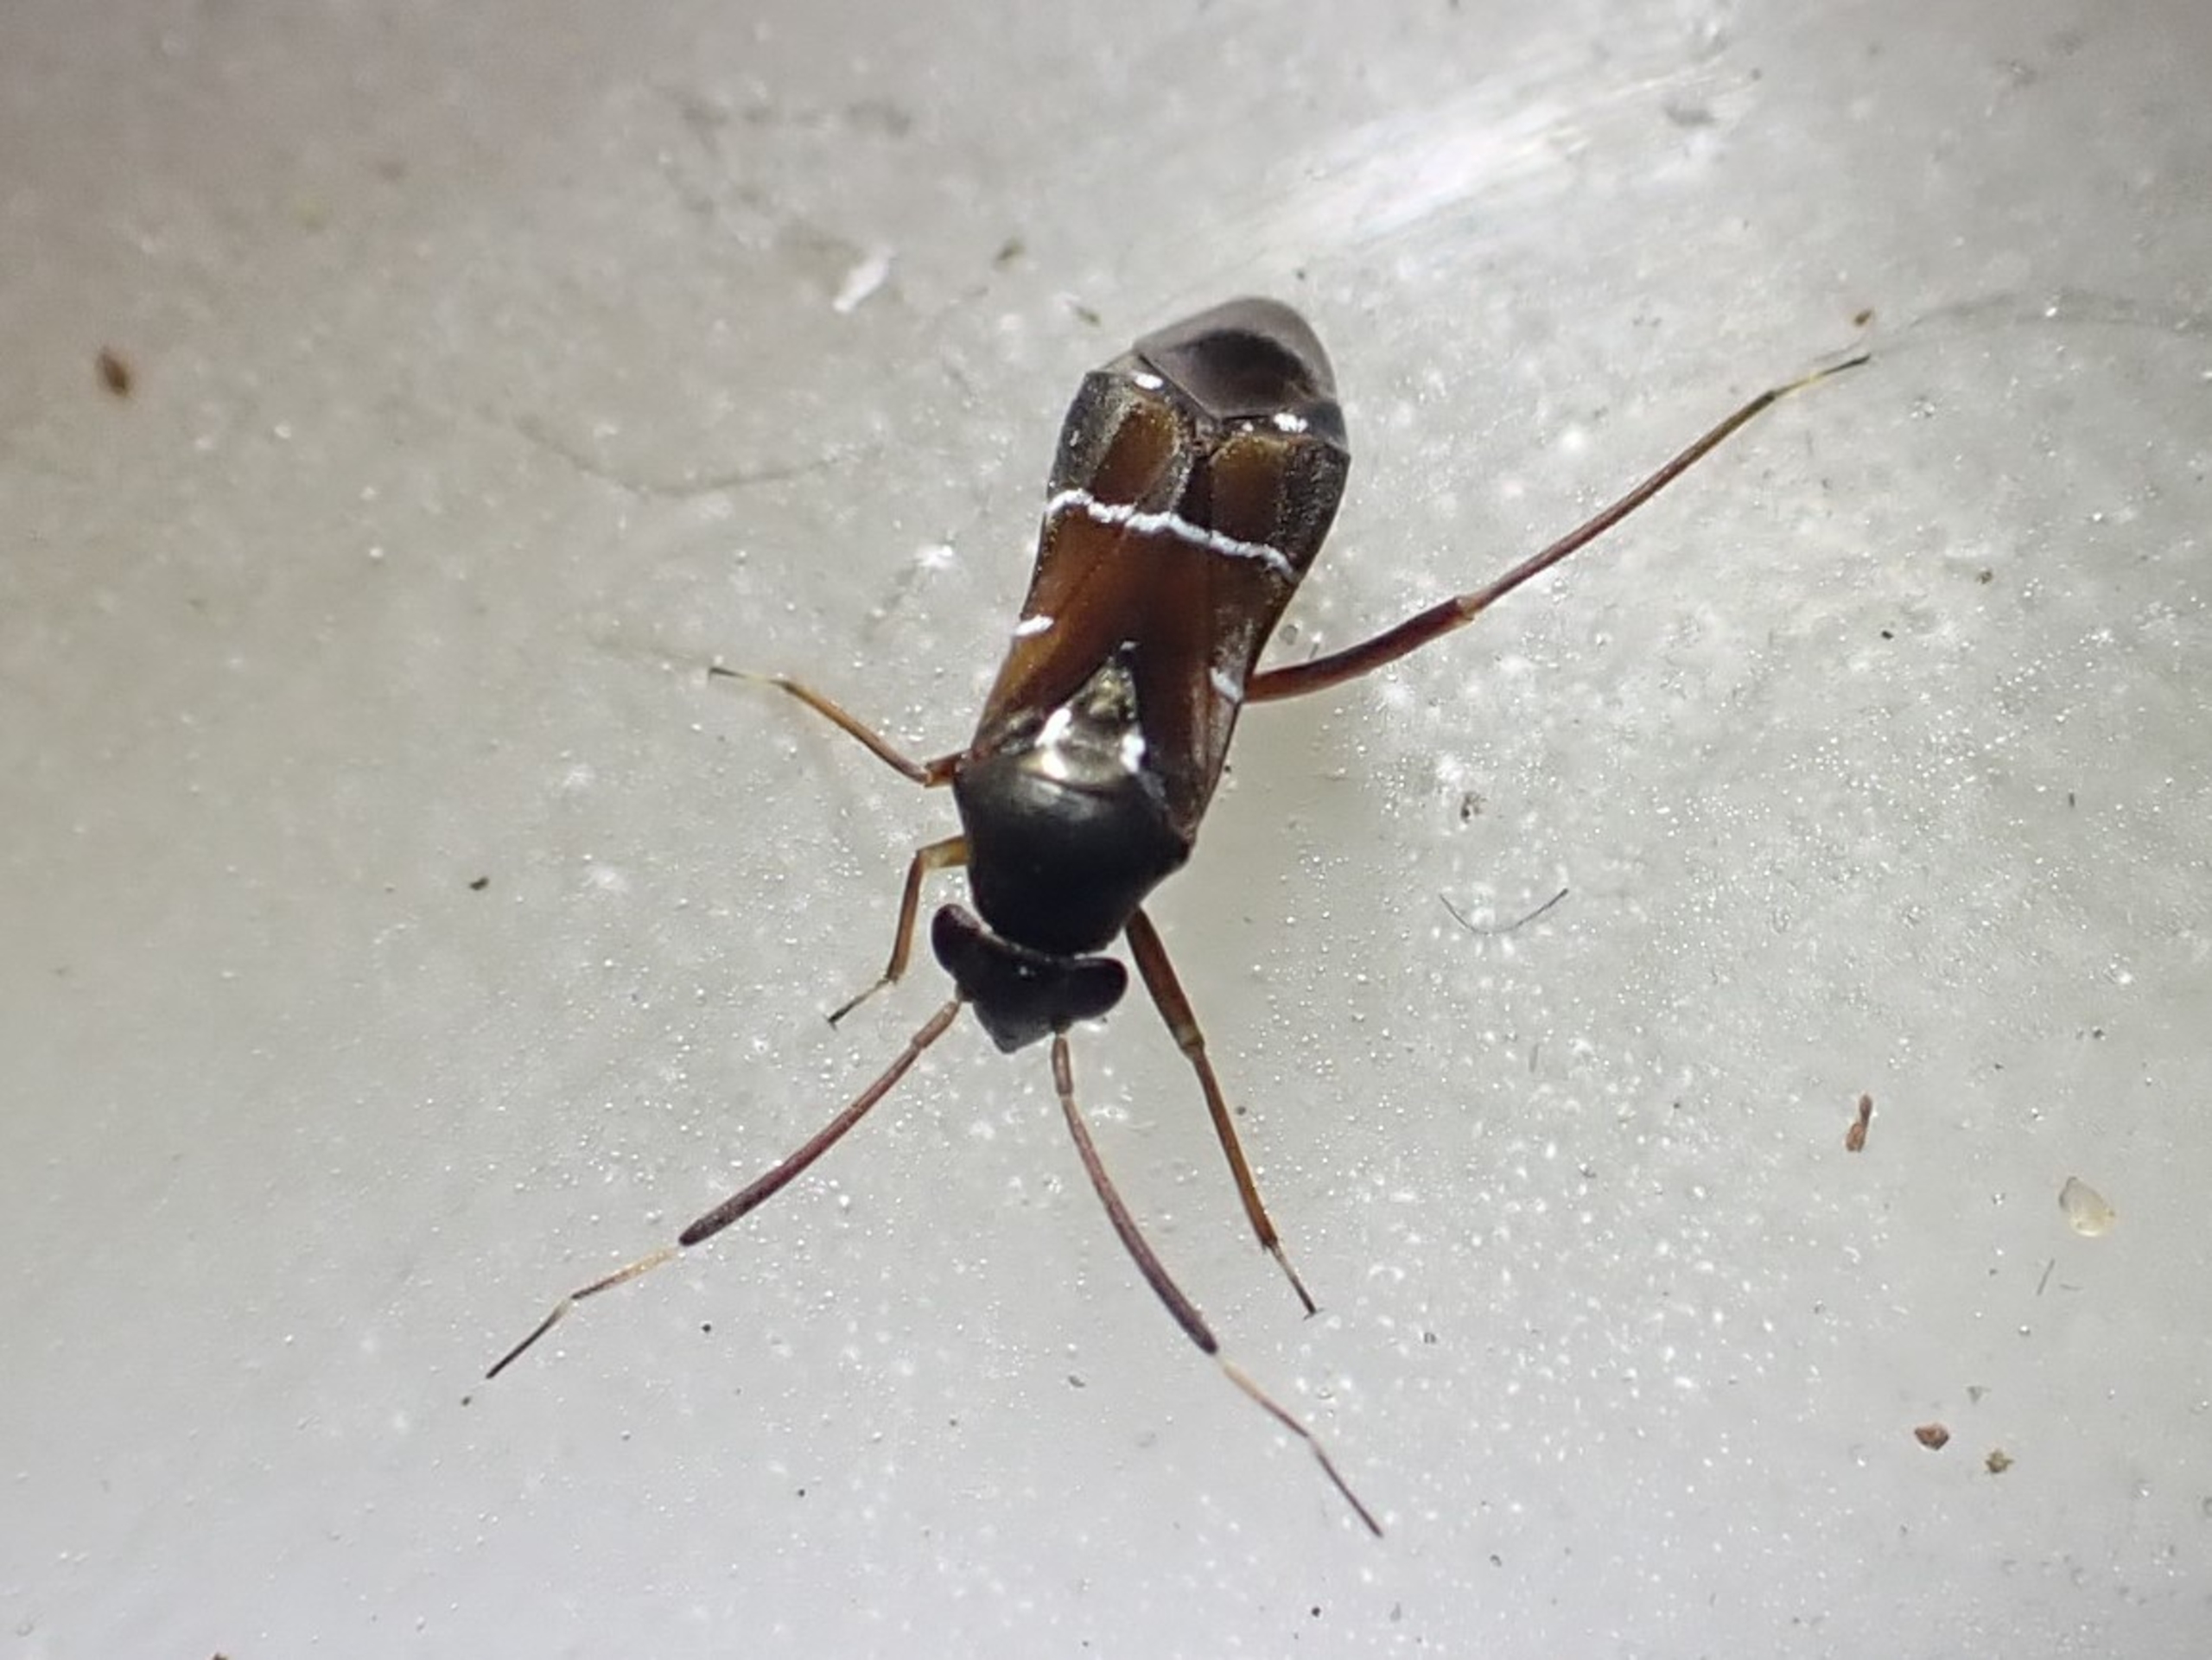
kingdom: Animalia
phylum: Arthropoda
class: Insecta
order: Hemiptera
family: Miridae
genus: Pilophorus
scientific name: Pilophorus perplexus
